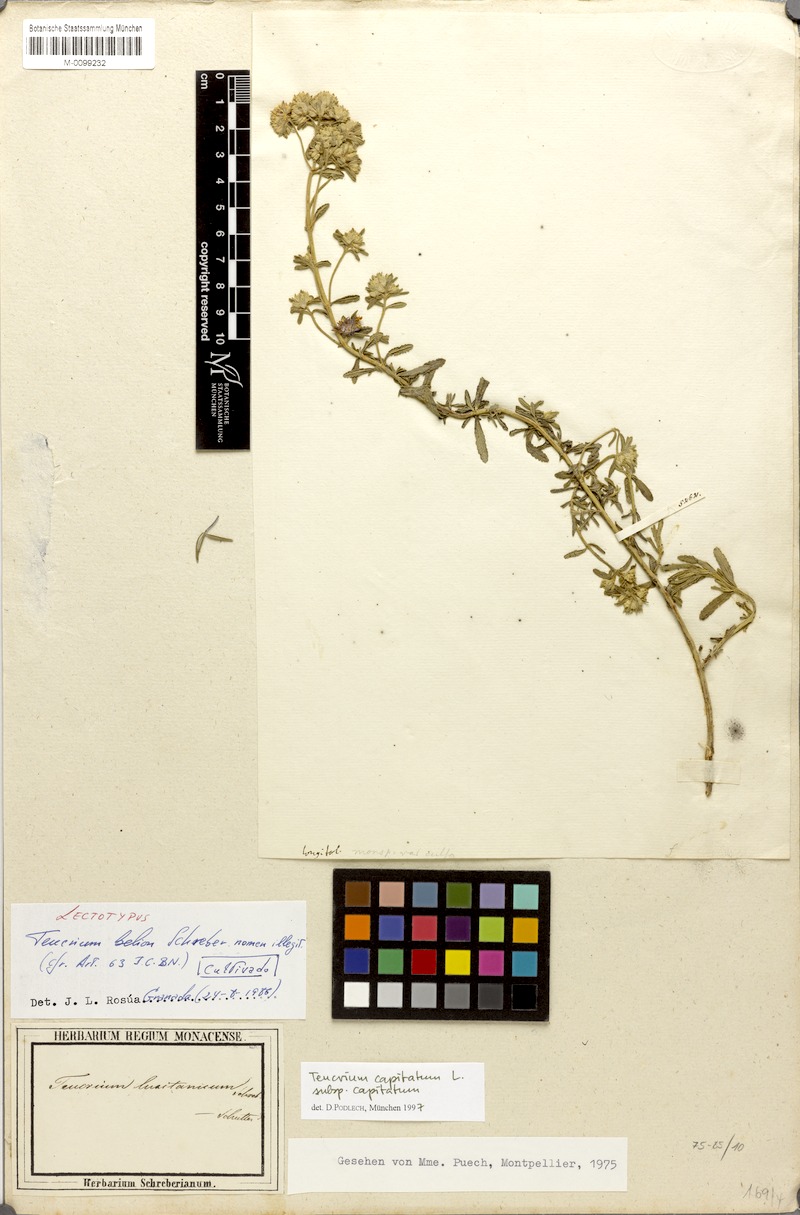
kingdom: Plantae
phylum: Tracheophyta
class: Magnoliopsida
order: Lamiales
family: Lamiaceae
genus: Teucrium
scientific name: Teucrium capitatum
